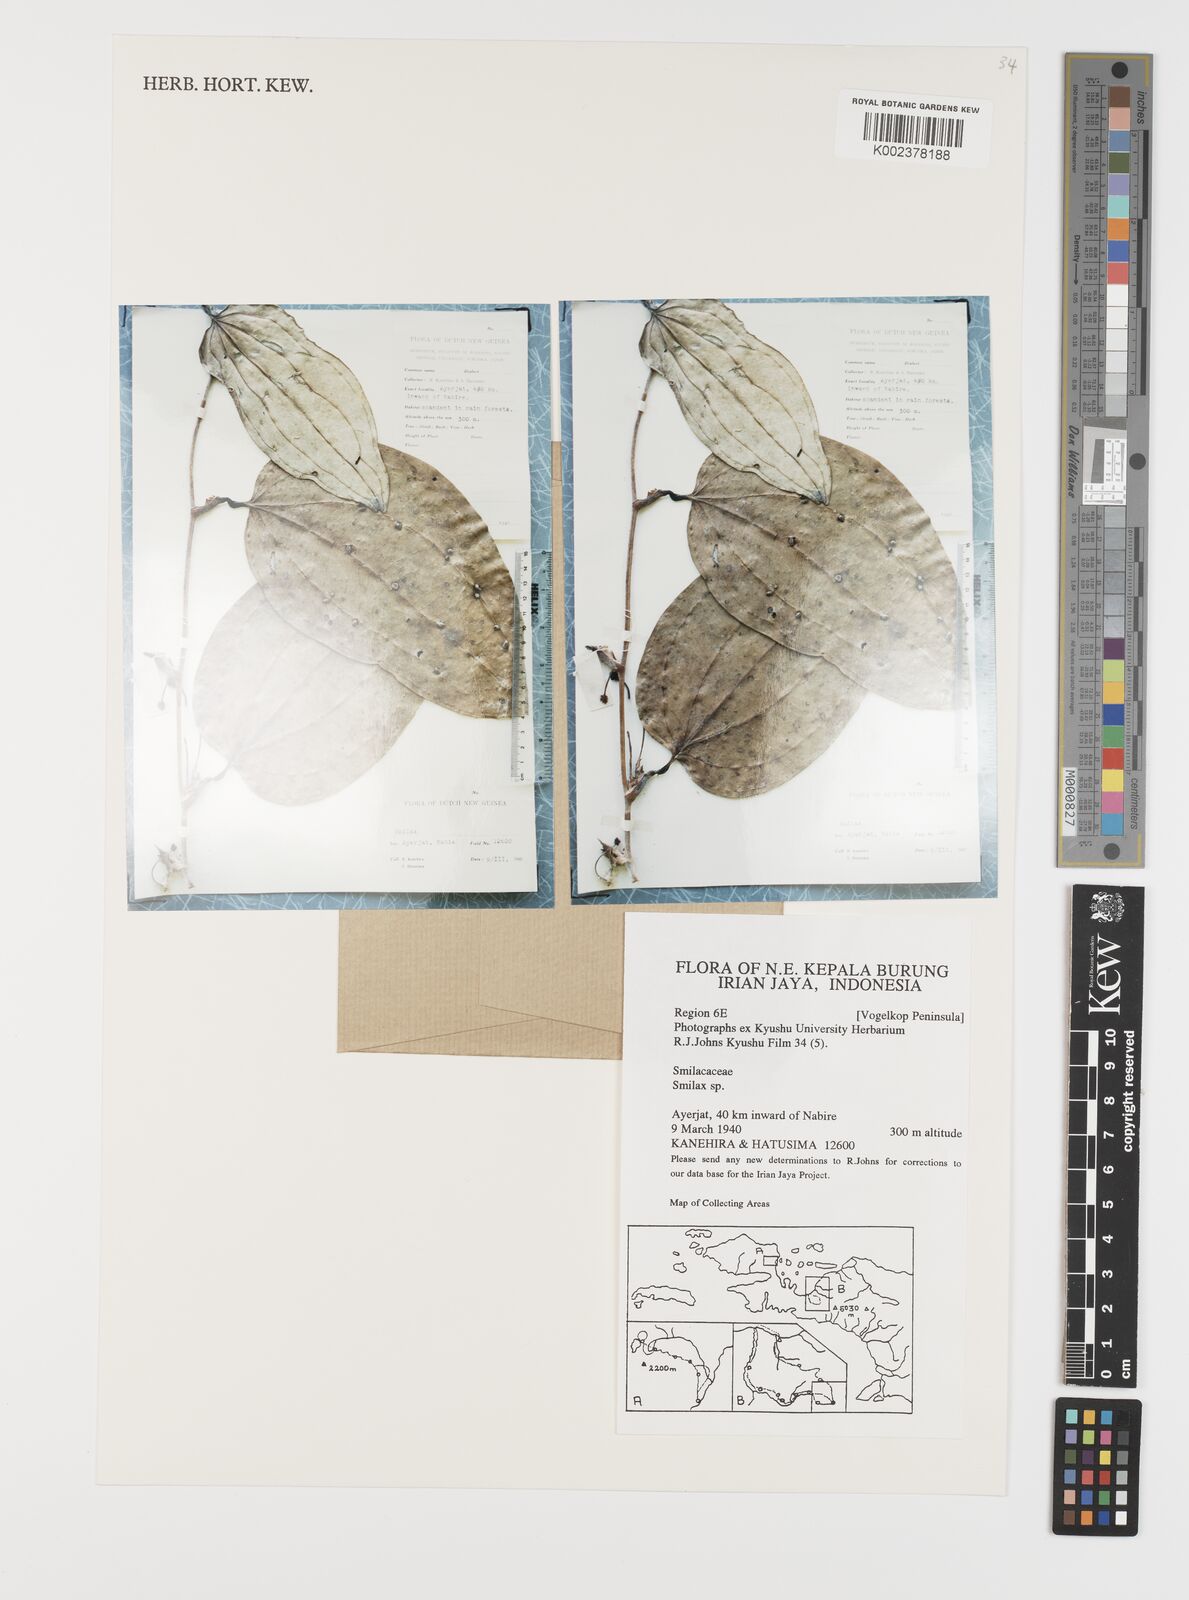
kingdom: Plantae
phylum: Tracheophyta
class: Liliopsida
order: Liliales
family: Smilacaceae
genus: Smilax
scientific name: Smilax
